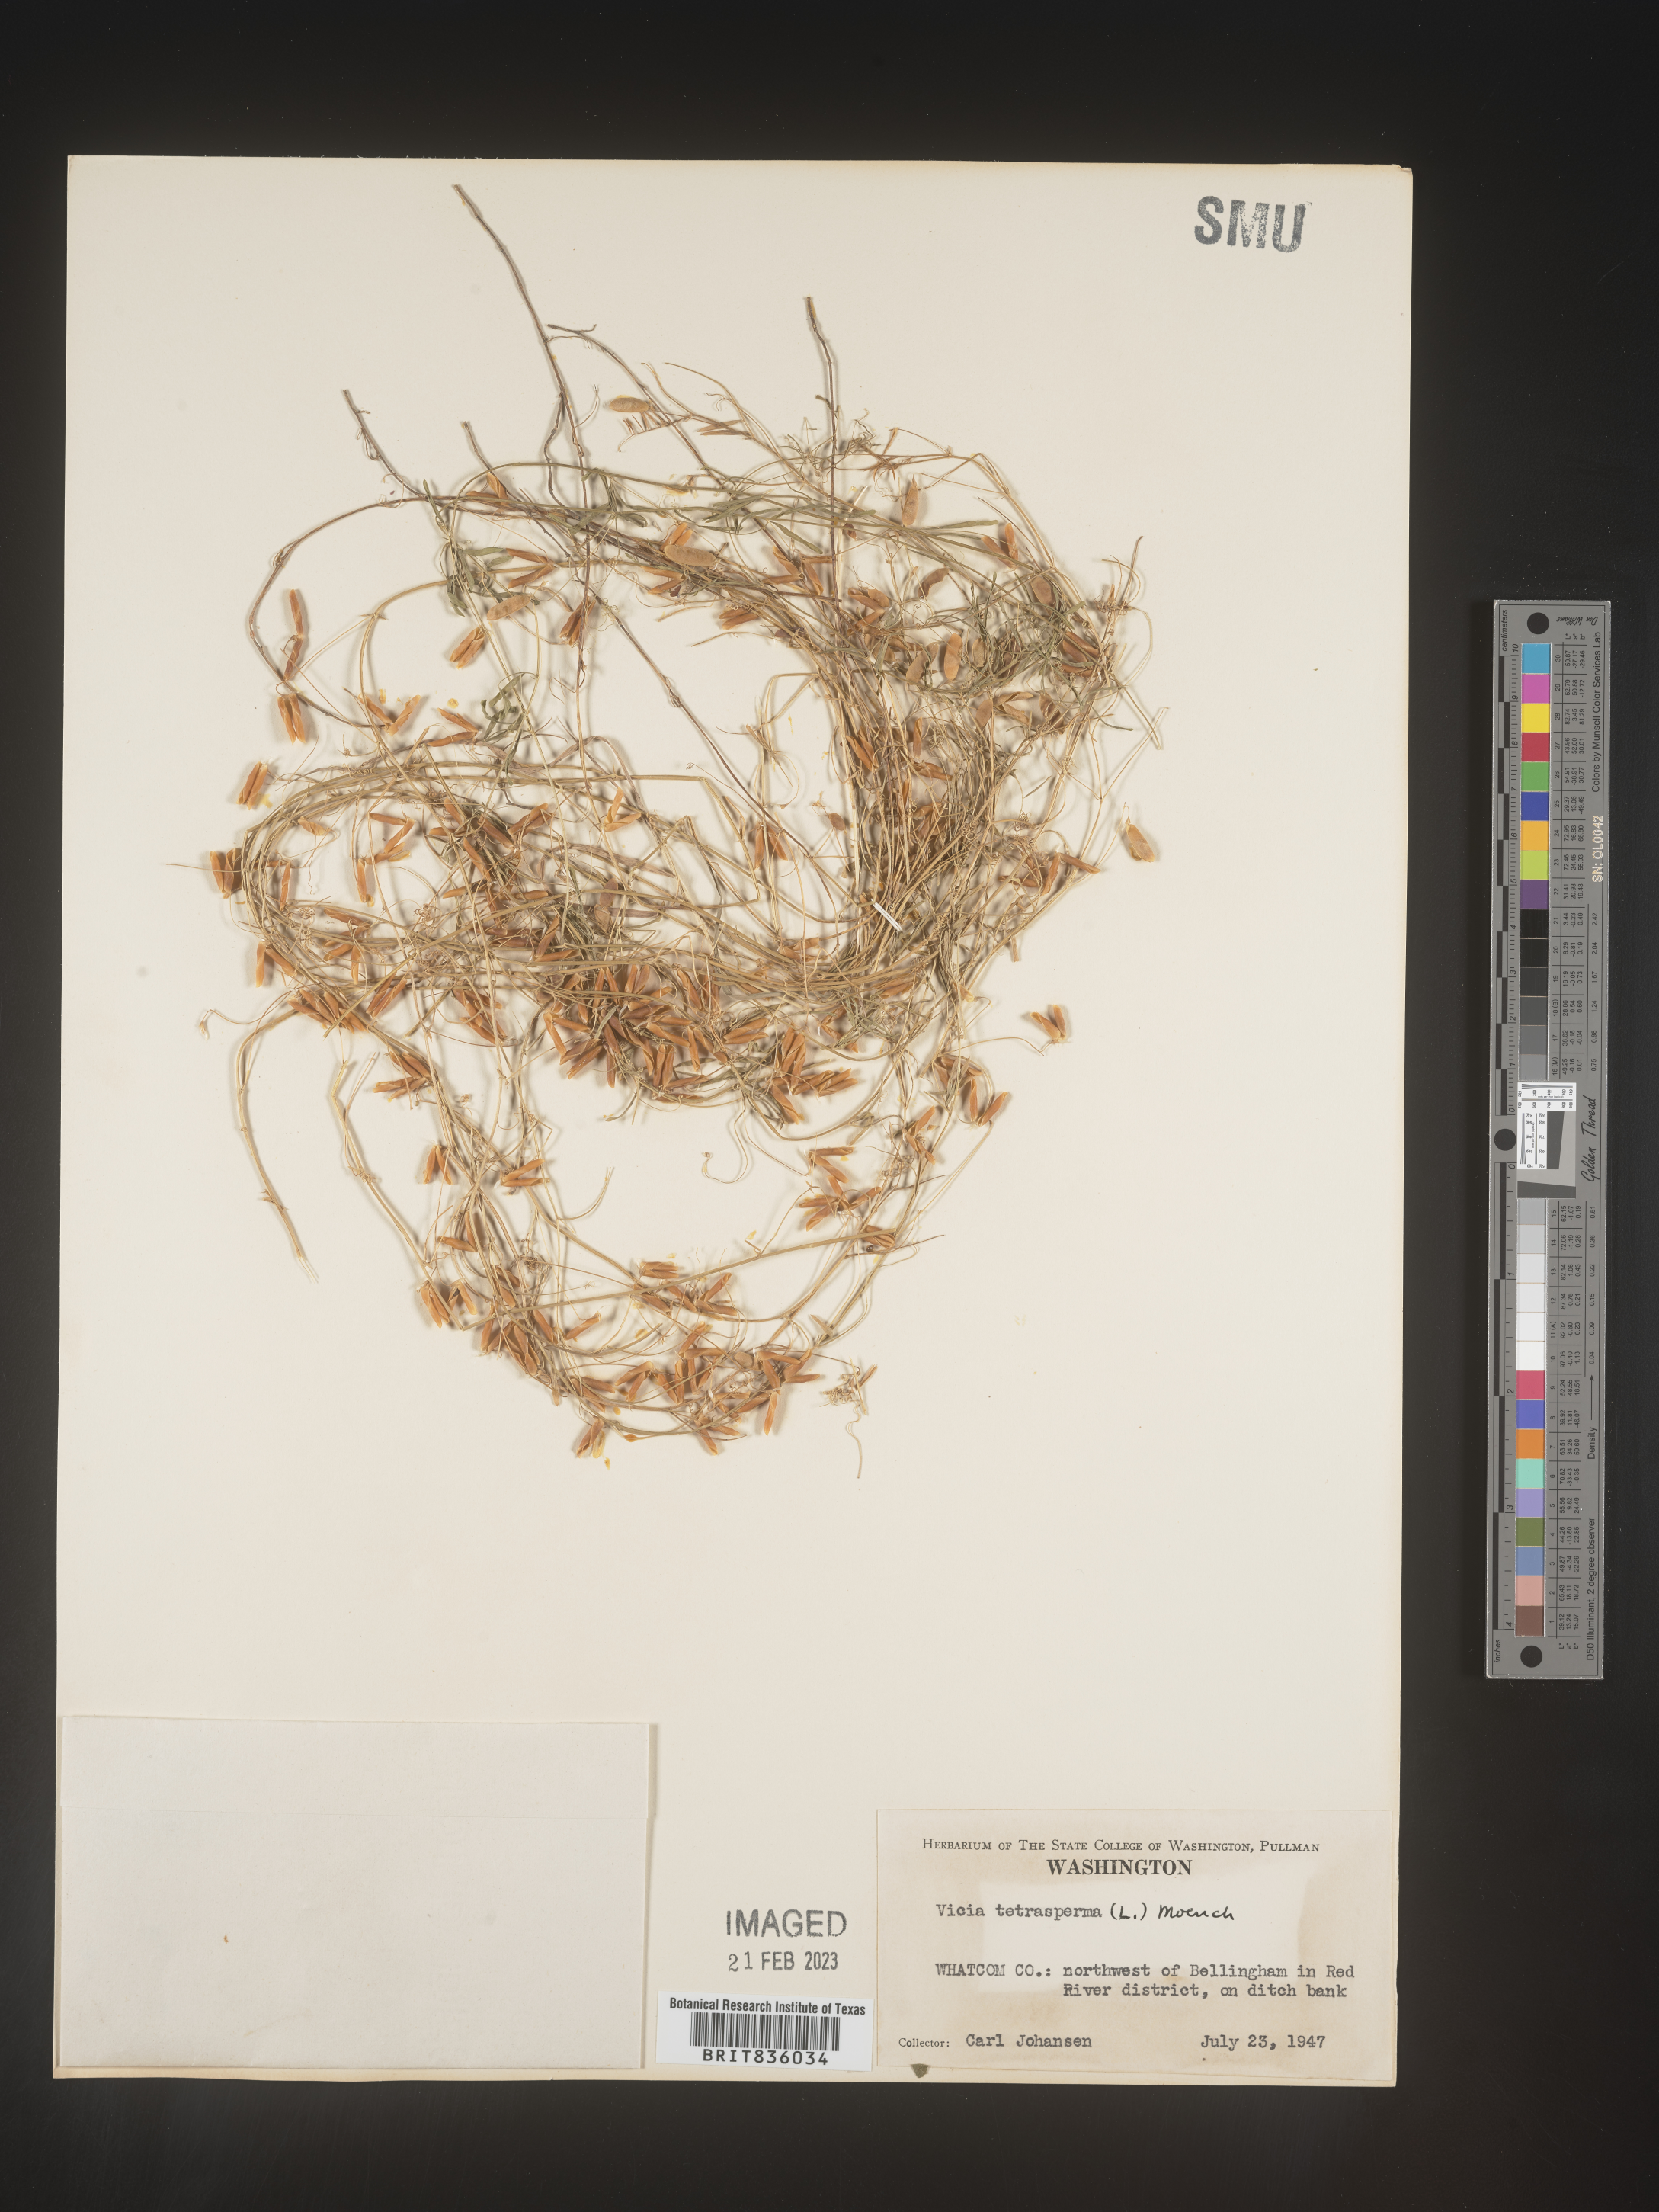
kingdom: Plantae
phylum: Tracheophyta
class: Magnoliopsida
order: Fabales
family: Fabaceae
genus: Vicia
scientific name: Vicia tetrasperma
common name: Smooth tare
